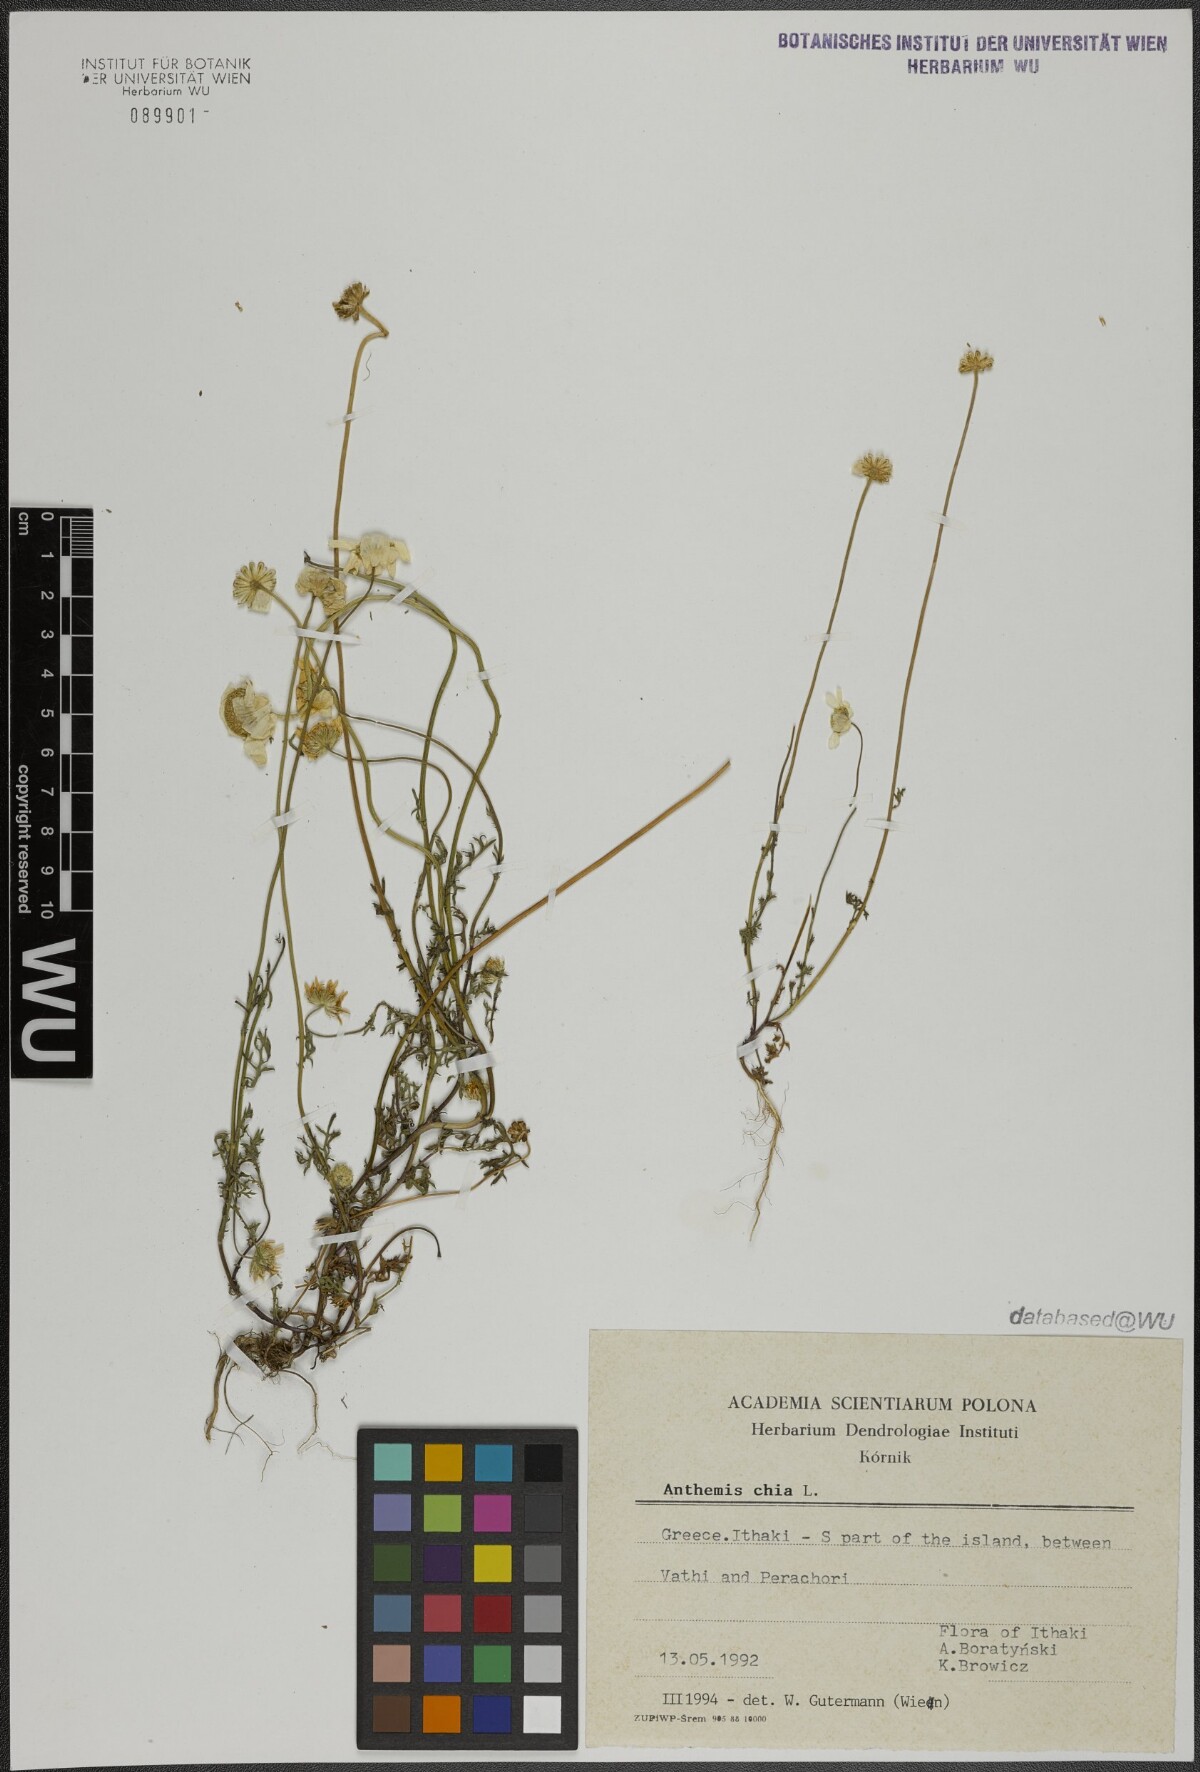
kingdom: Plantae
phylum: Tracheophyta
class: Magnoliopsida
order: Asterales
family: Asteraceae
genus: Anthemis
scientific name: Anthemis chia
